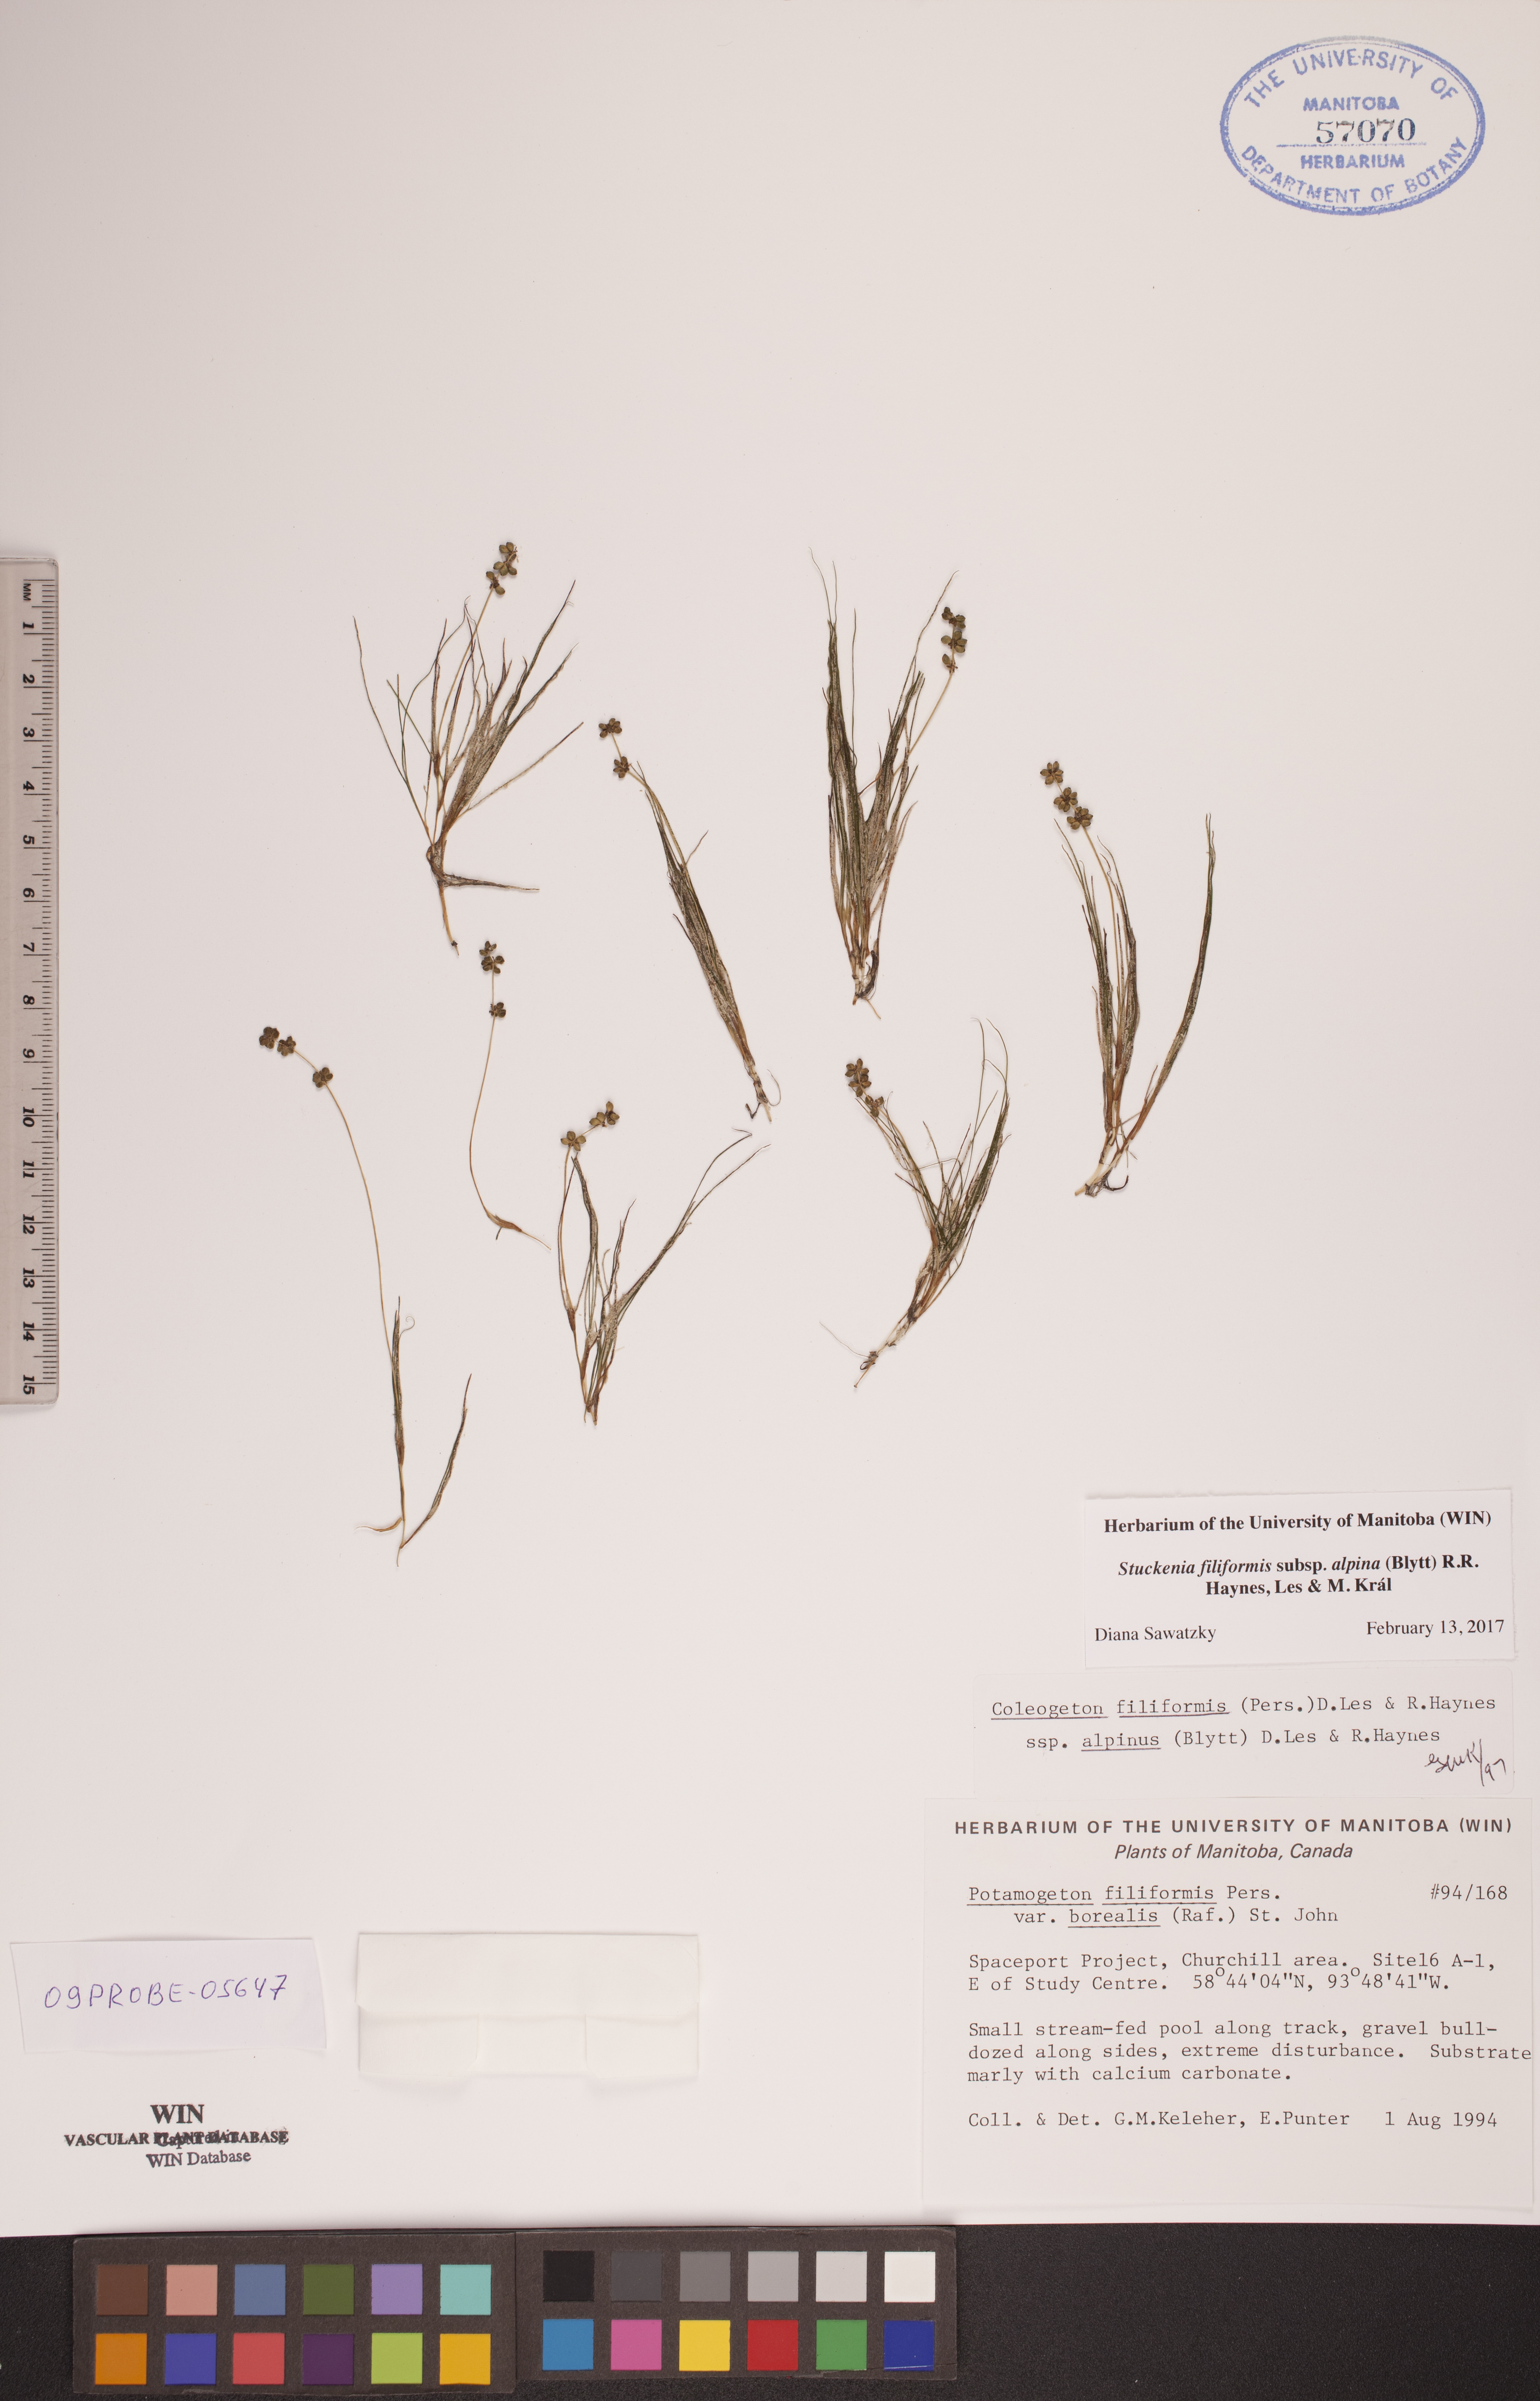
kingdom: Plantae
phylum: Tracheophyta
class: Liliopsida
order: Alismatales
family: Potamogetonaceae
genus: Stuckenia
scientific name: Stuckenia filiformis
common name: Alpine thread-leaved pondweed
